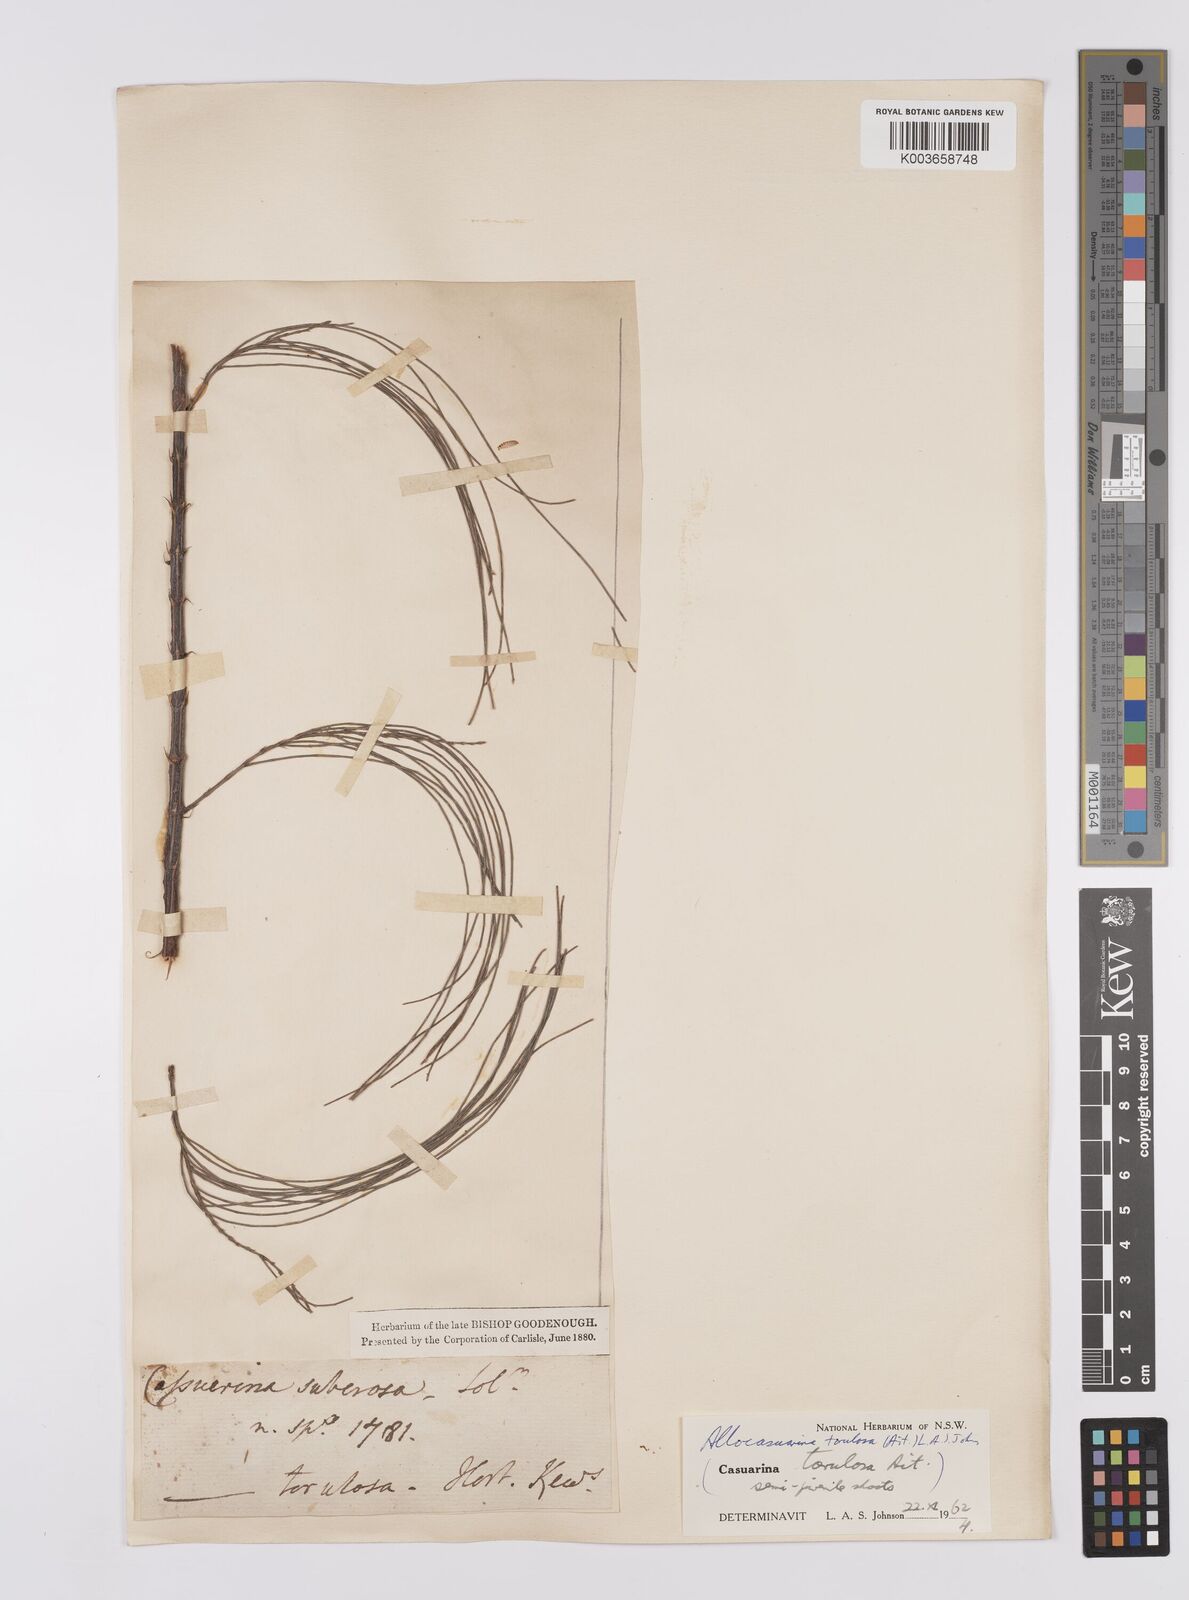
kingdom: Plantae
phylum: Tracheophyta
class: Magnoliopsida
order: Fagales
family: Casuarinaceae
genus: Allocasuarina
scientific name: Allocasuarina torulosa
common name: Forest-oak
